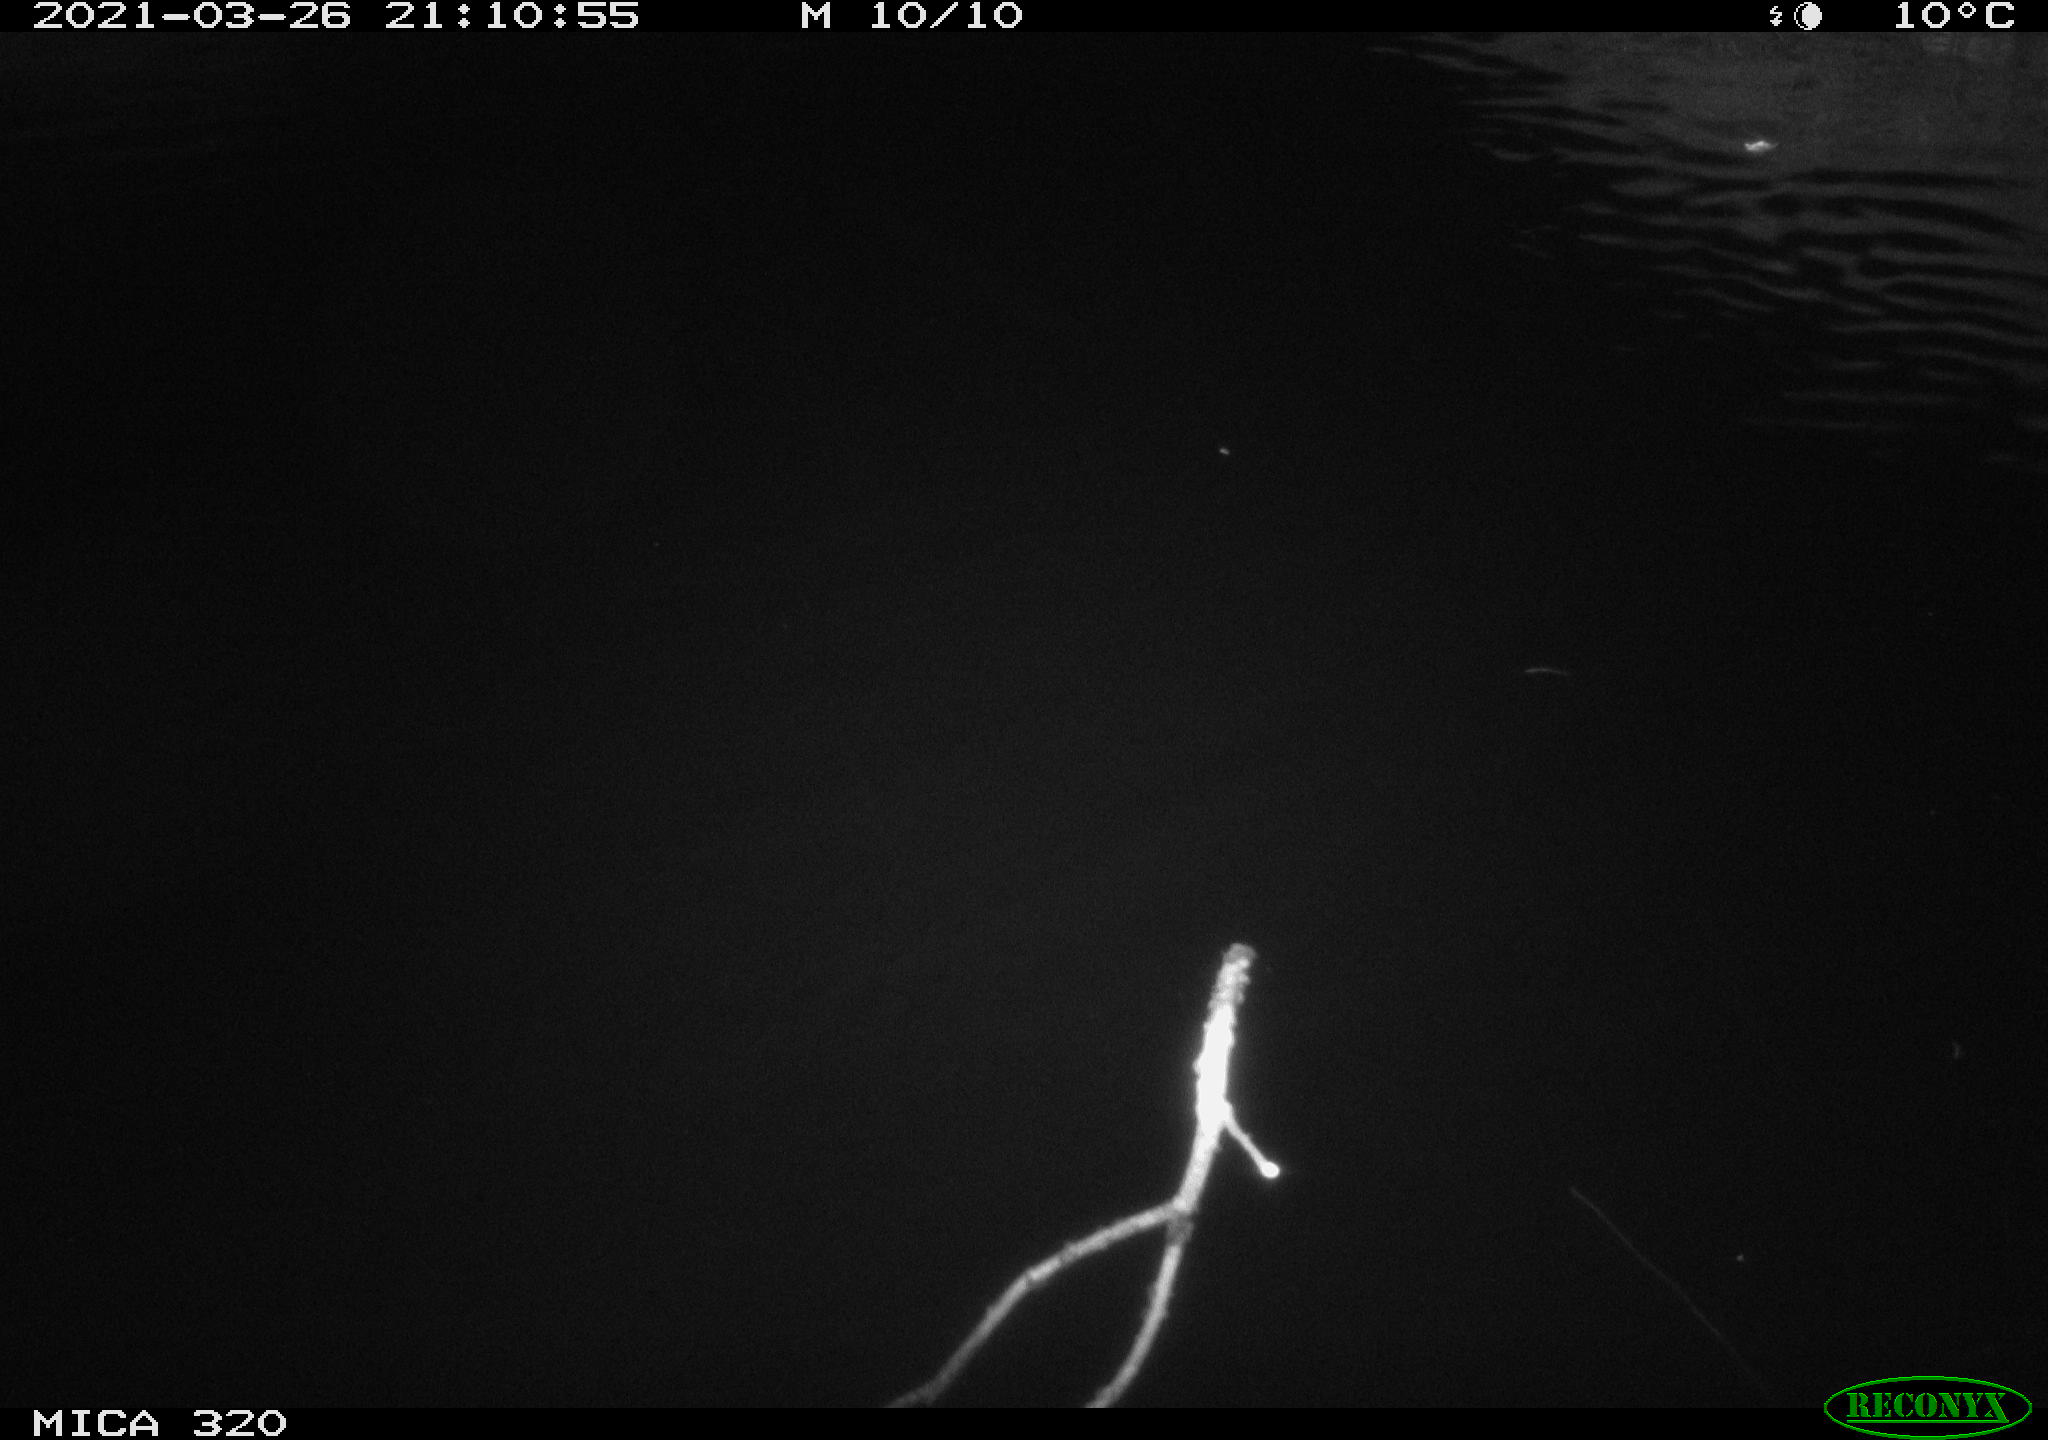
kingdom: Animalia
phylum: Chordata
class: Aves
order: Anseriformes
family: Anatidae
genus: Anas
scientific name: Anas platyrhynchos
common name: Mallard
